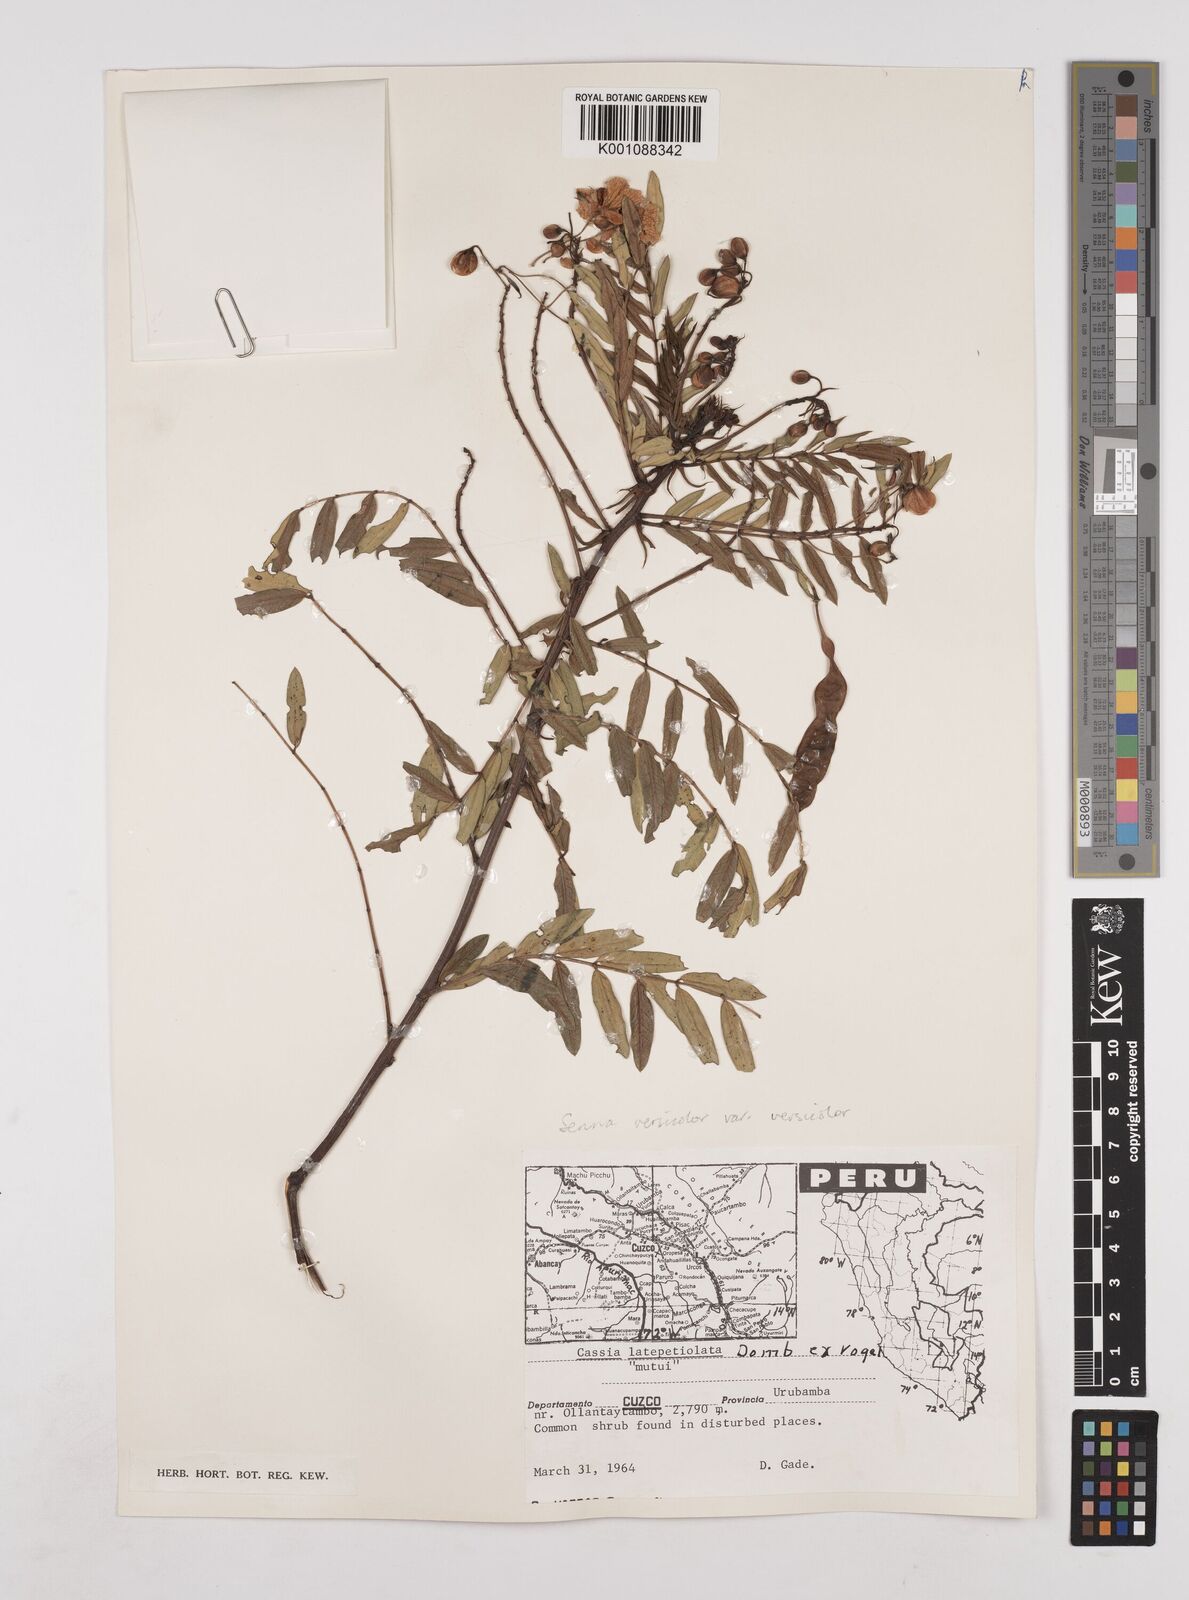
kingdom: Plantae
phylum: Tracheophyta
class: Magnoliopsida
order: Fabales
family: Fabaceae
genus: Senna
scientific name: Senna versicolor
